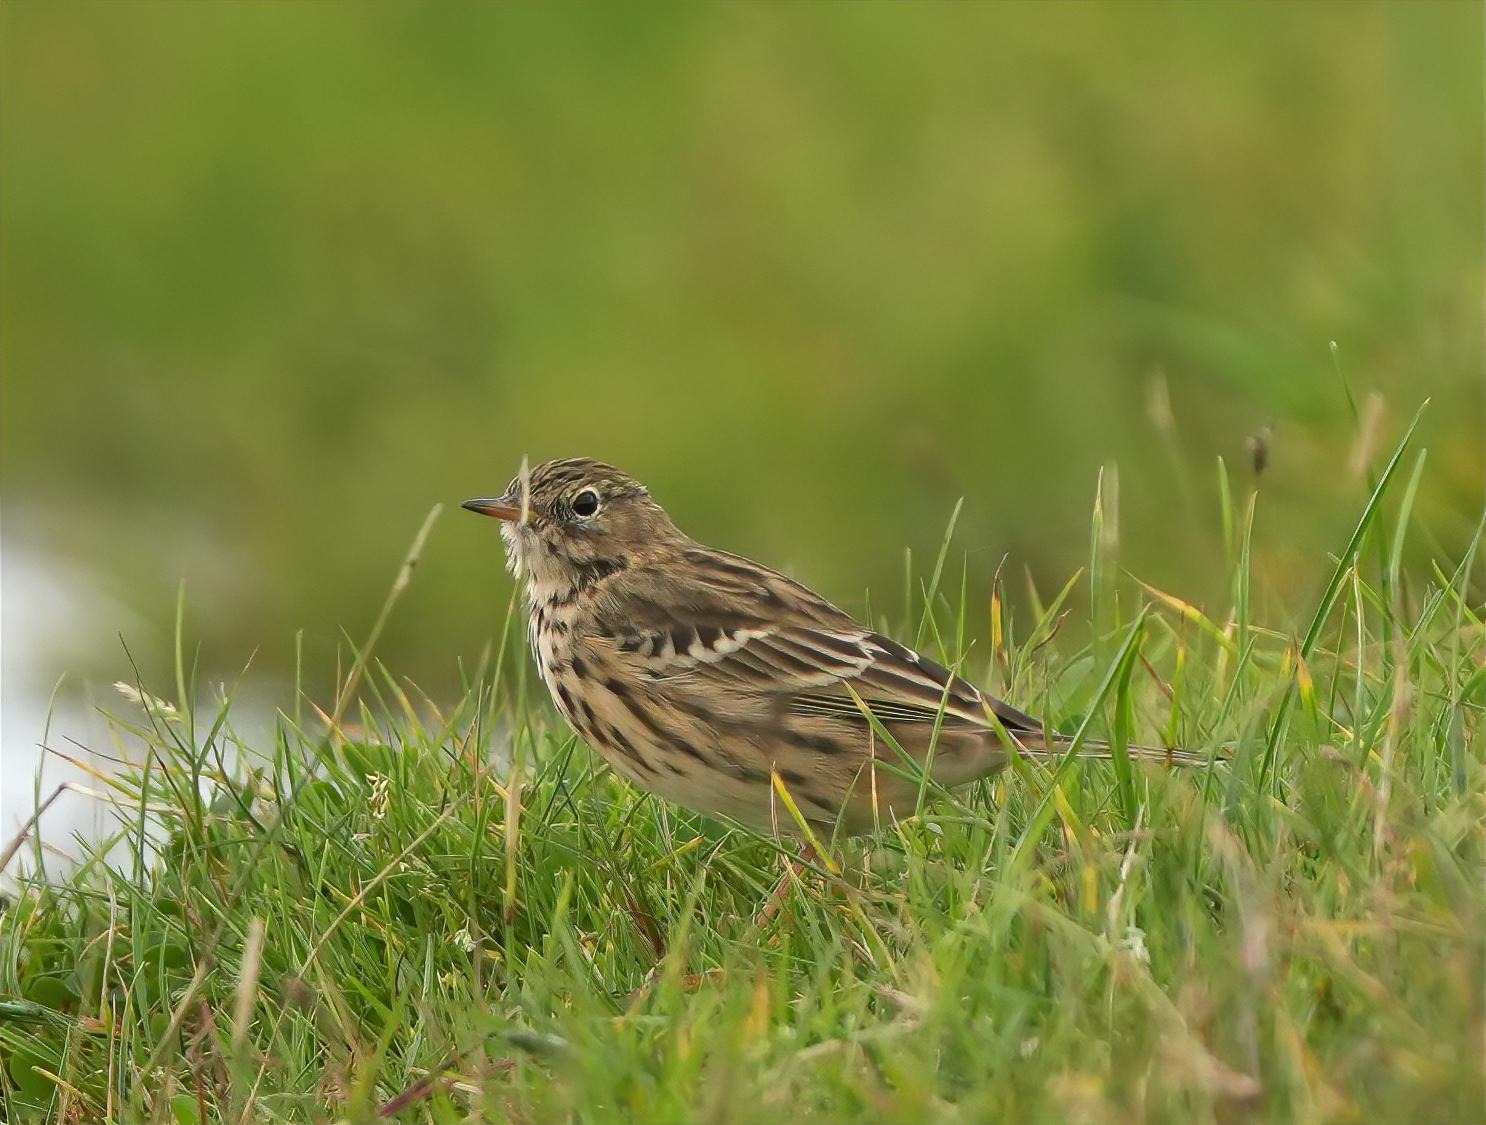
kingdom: Animalia
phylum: Chordata
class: Aves
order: Passeriformes
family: Motacillidae
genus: Anthus
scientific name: Anthus pratensis
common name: Engpiber
